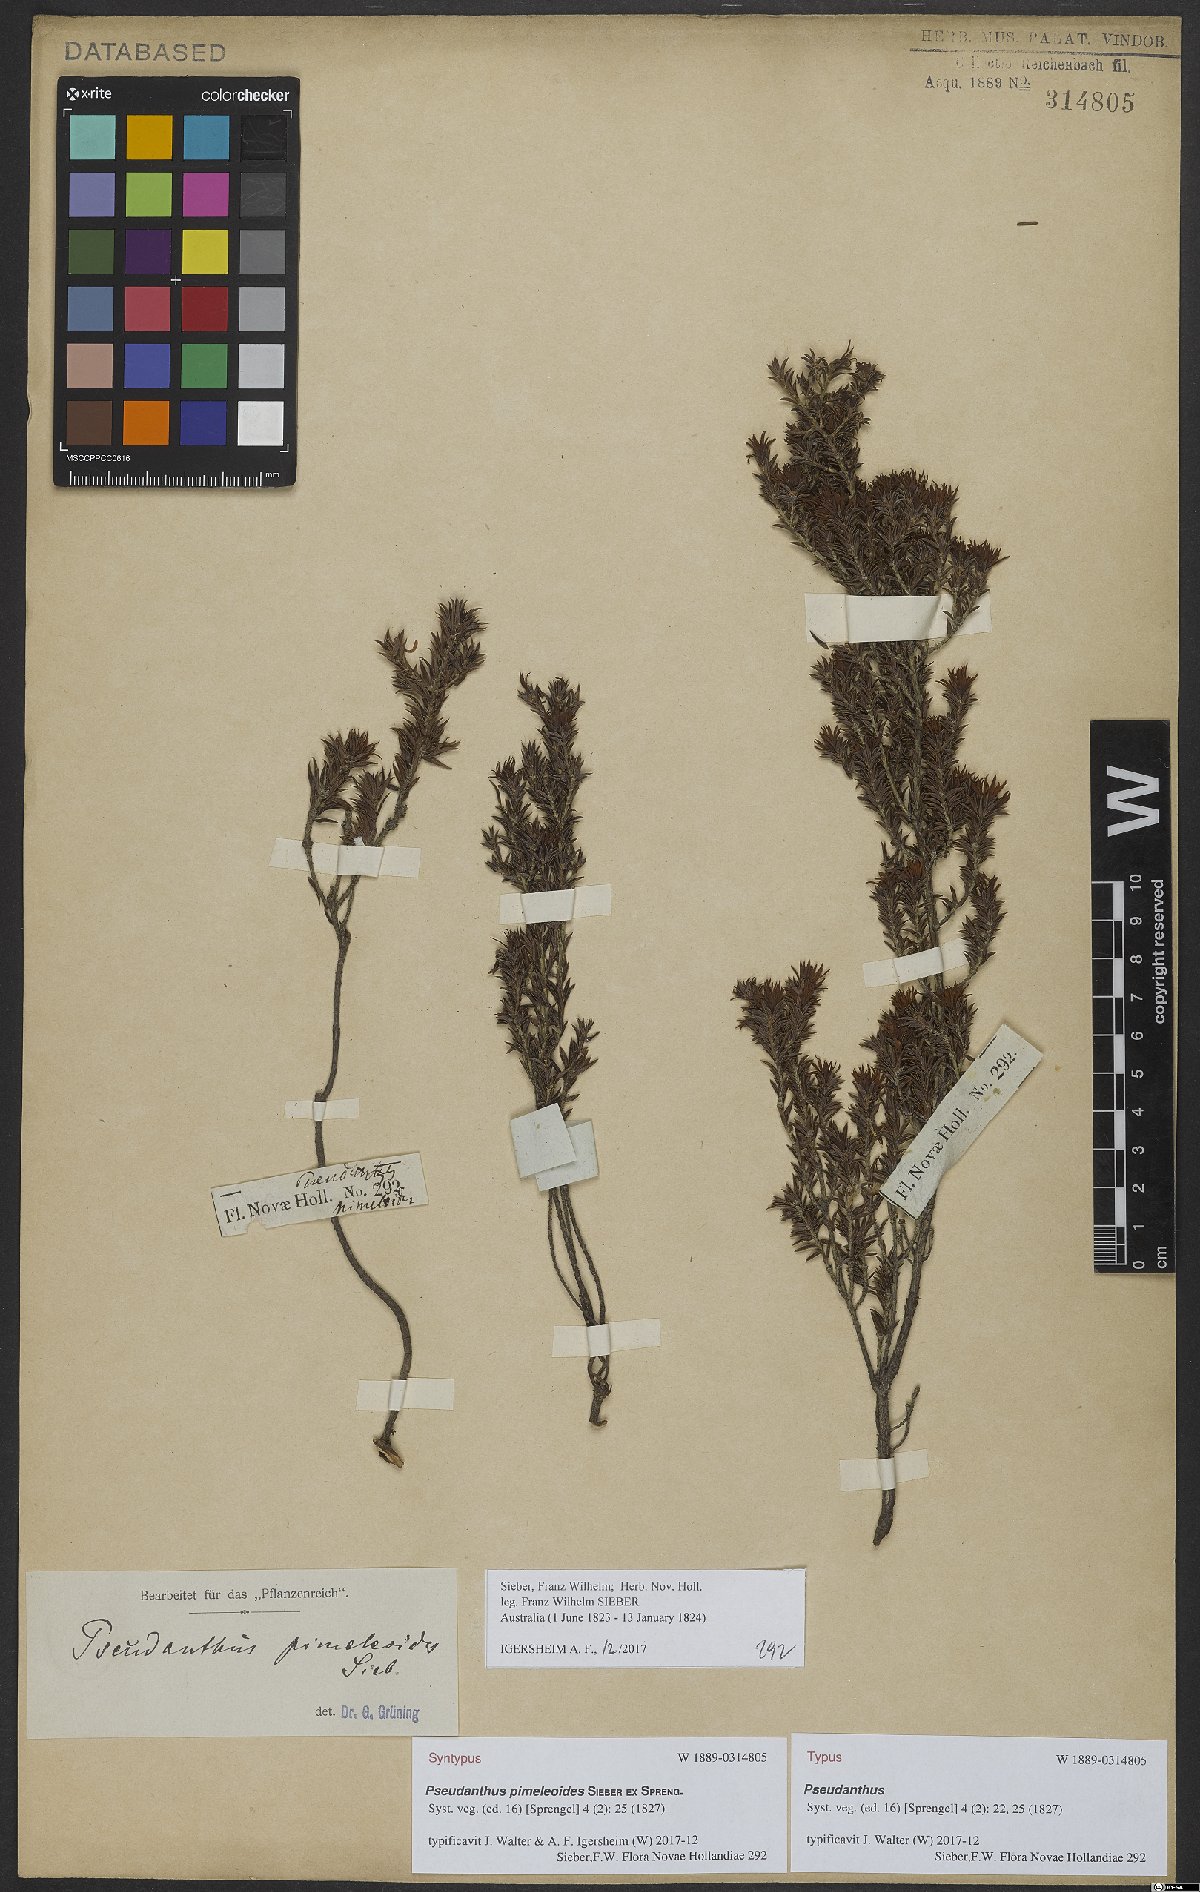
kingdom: Plantae
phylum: Tracheophyta
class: Magnoliopsida
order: Malpighiales
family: Picrodendraceae
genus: Pseudanthus
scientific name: Pseudanthus pimeleoides
